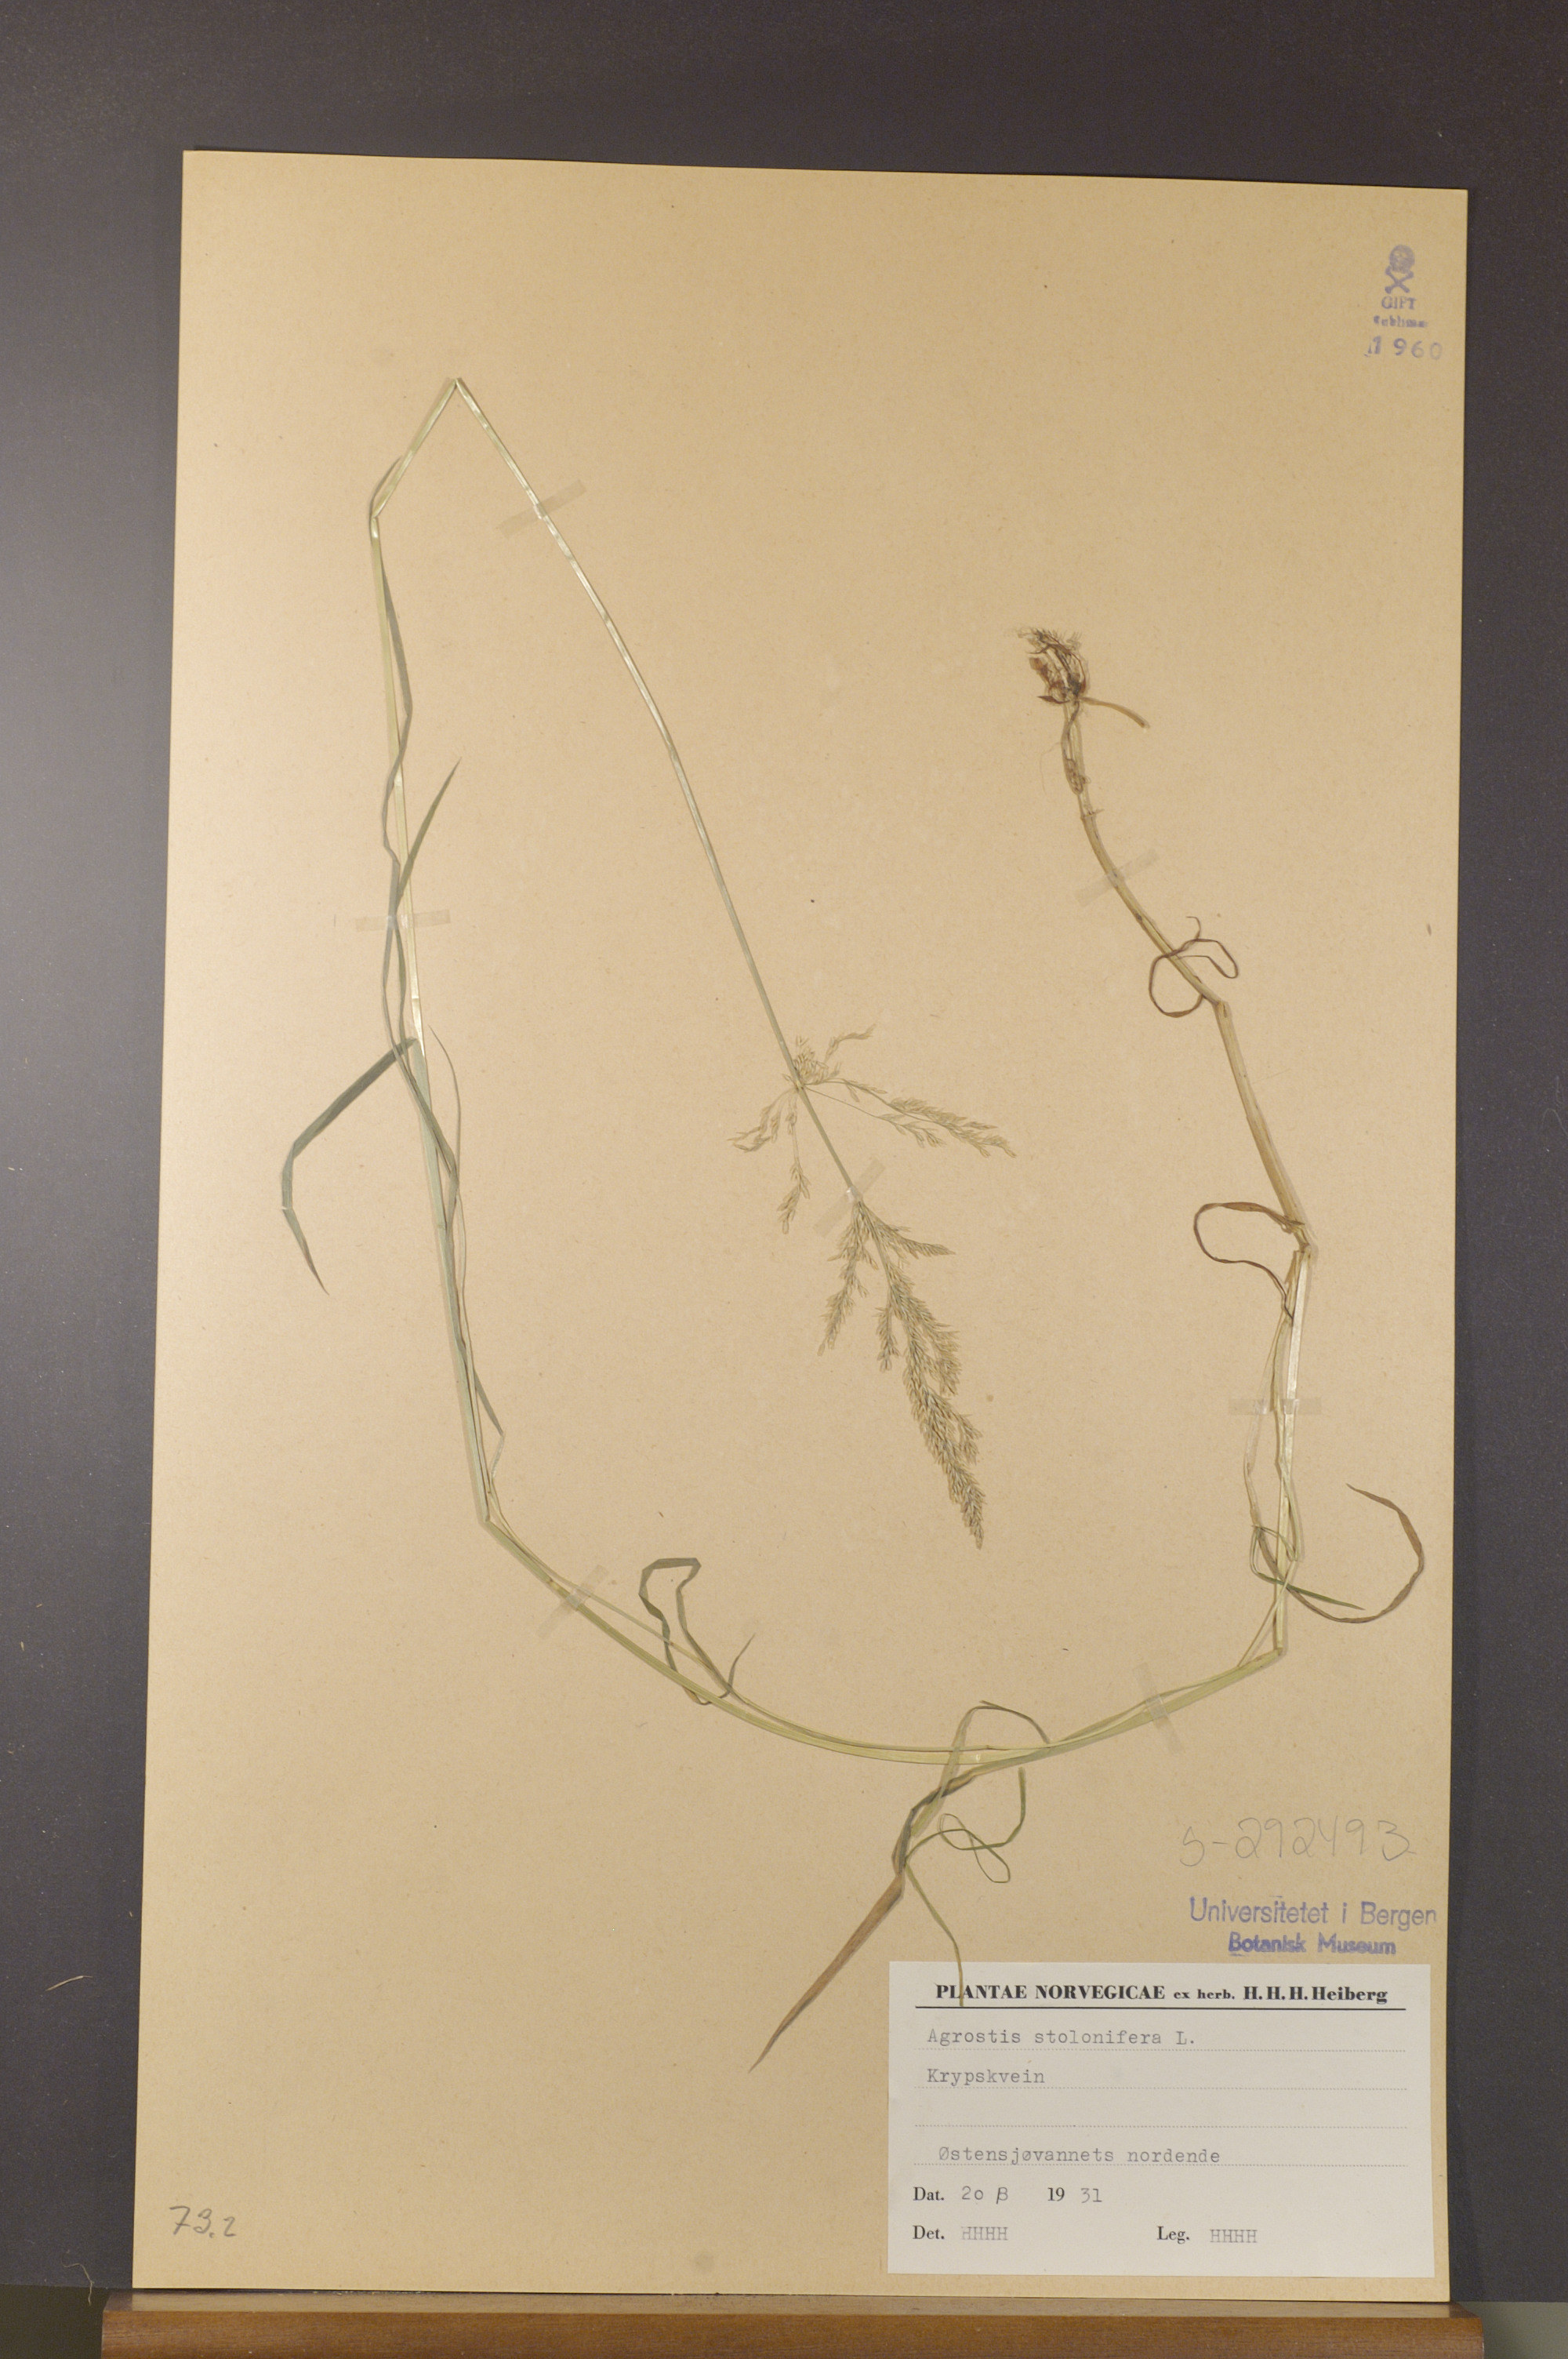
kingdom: Plantae
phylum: Tracheophyta
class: Liliopsida
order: Poales
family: Poaceae
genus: Agrostis
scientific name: Agrostis stolonifera
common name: Creeping bentgrass
